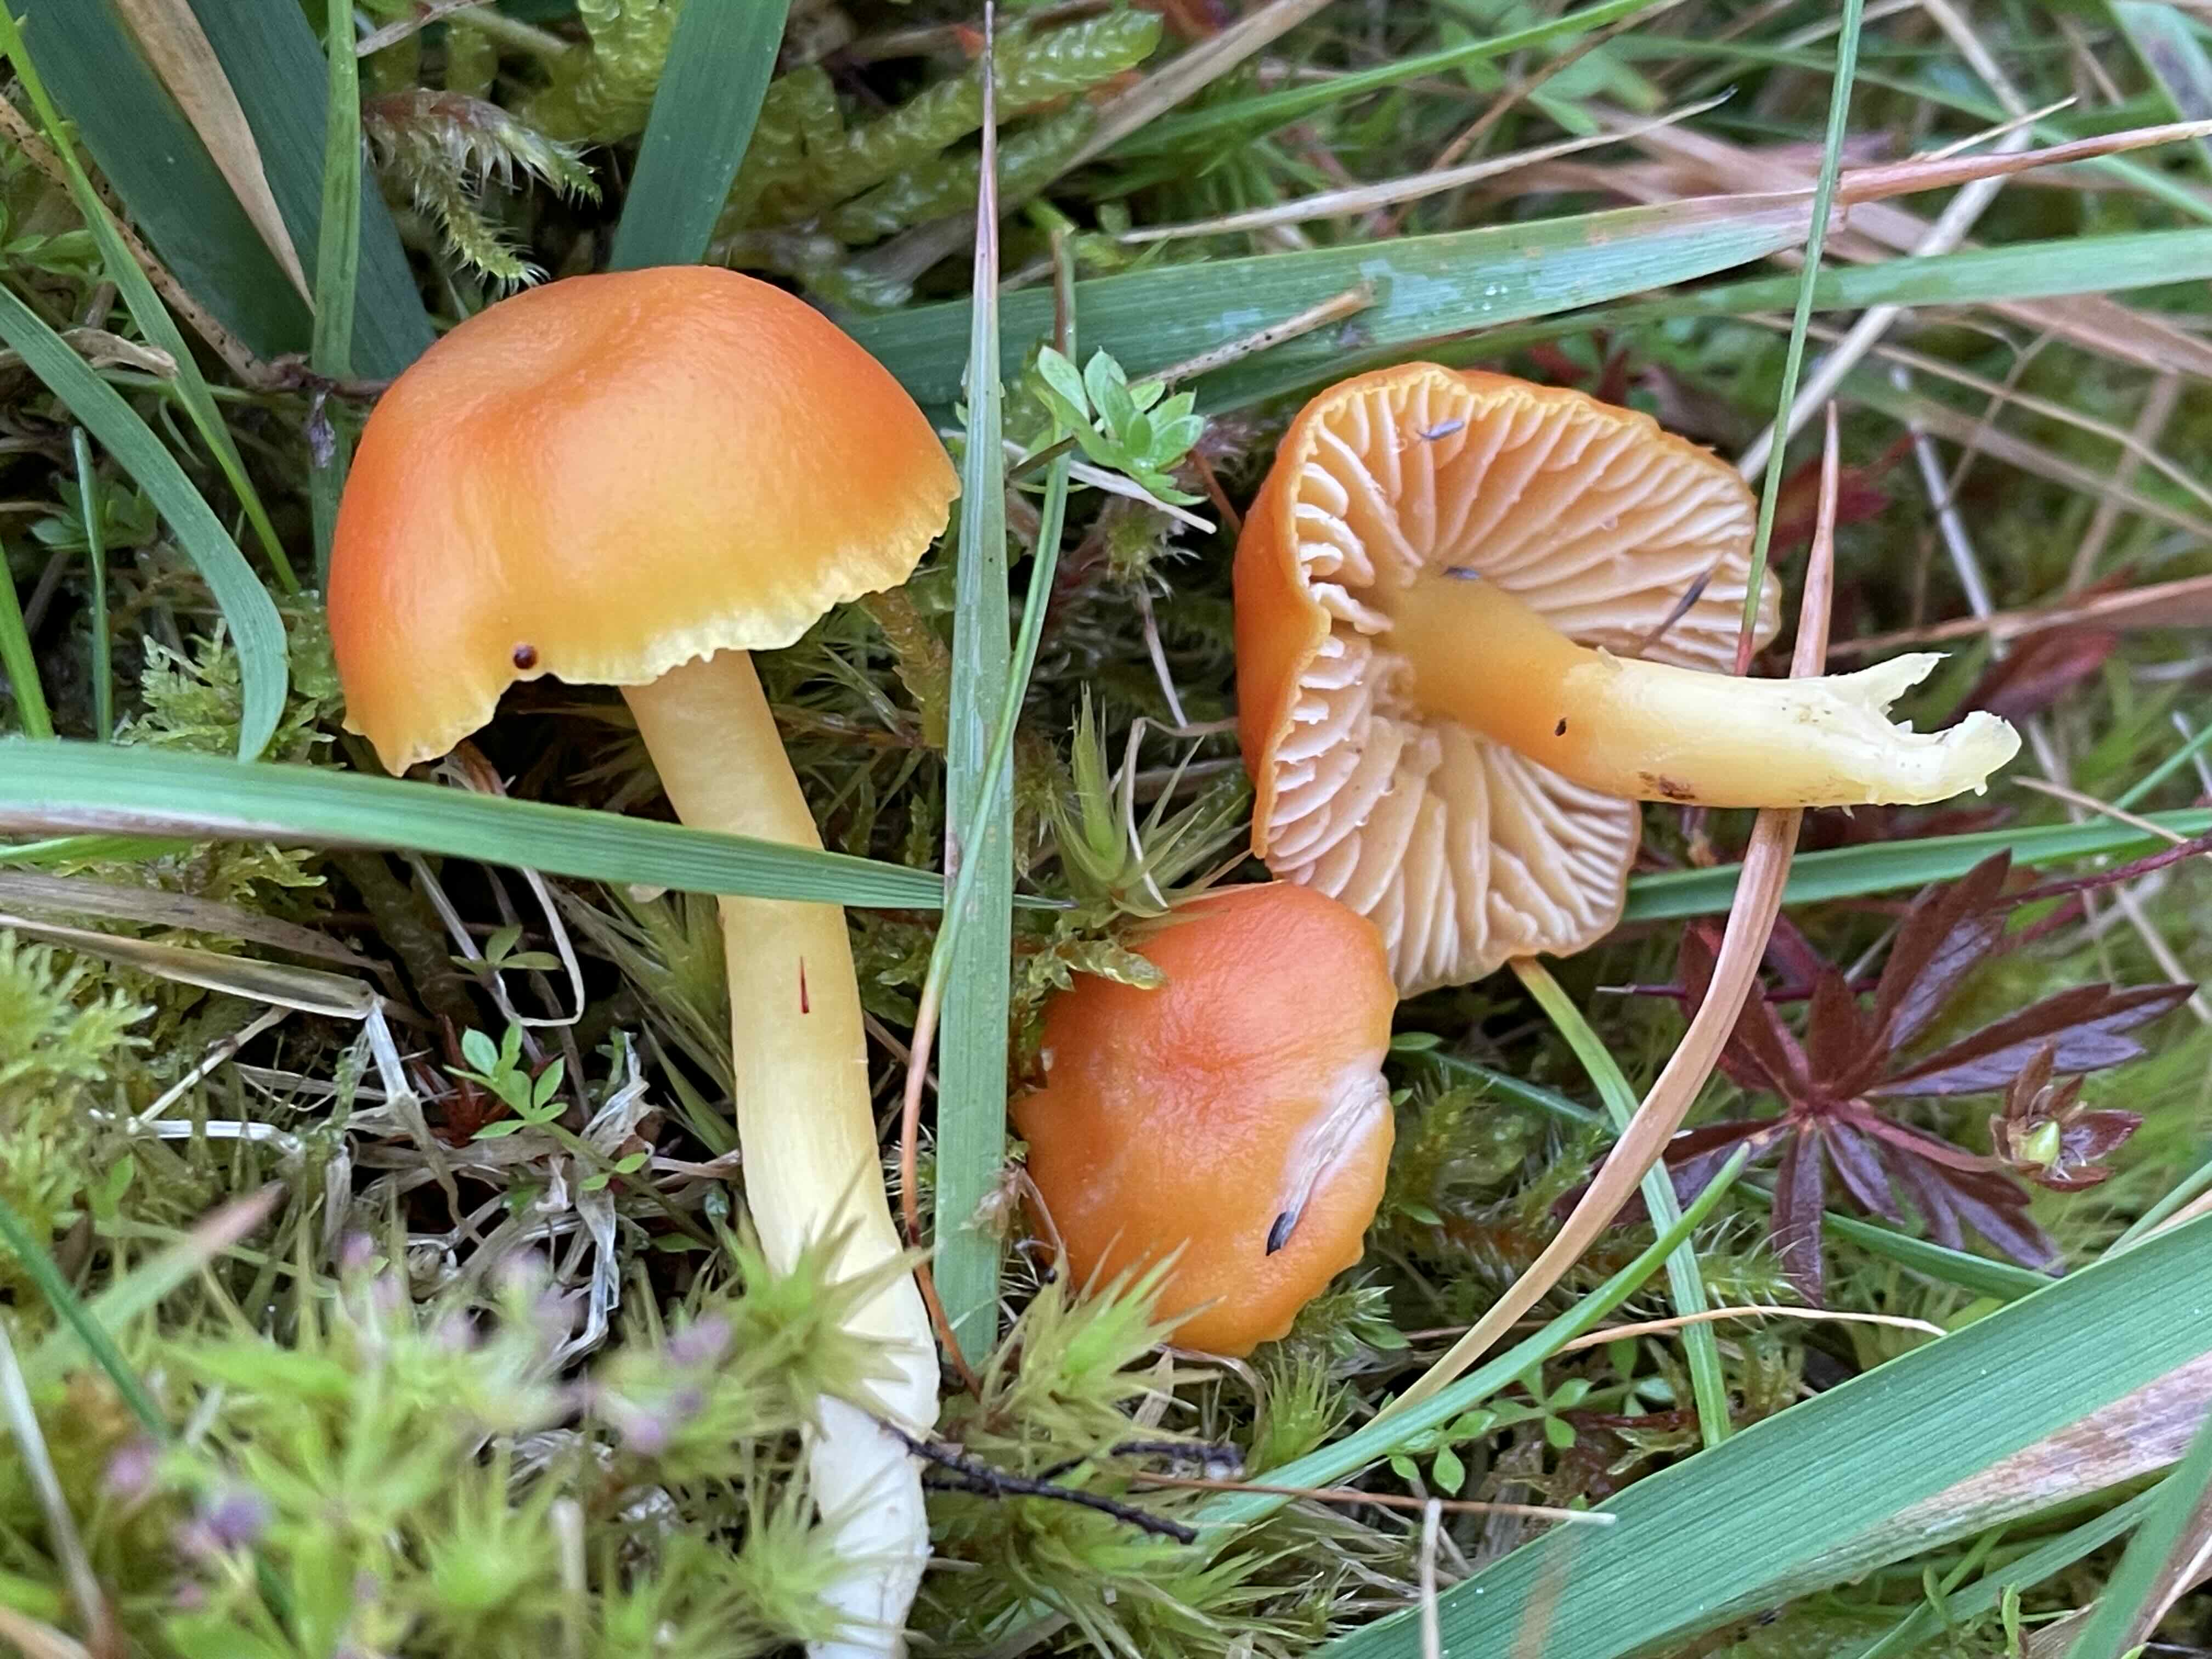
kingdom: Fungi
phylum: Basidiomycota
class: Agaricomycetes
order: Agaricales
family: Hygrophoraceae
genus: Hygrocybe
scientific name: Hygrocybe
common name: vokshat
